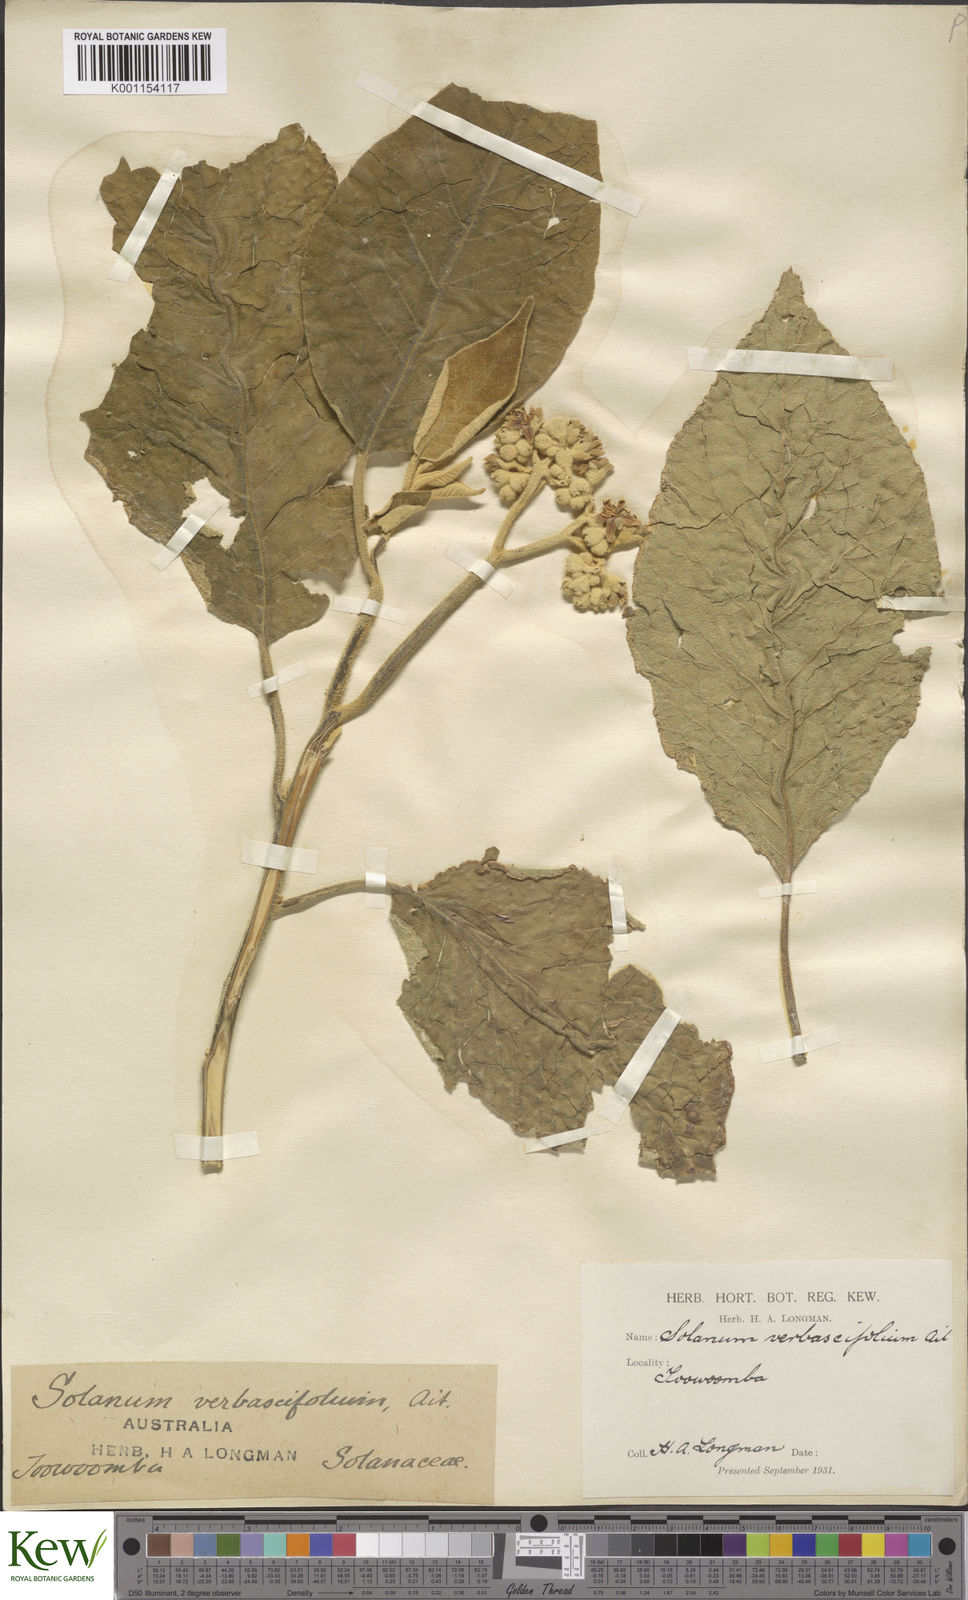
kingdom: Plantae
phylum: Tracheophyta
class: Magnoliopsida
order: Solanales
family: Solanaceae
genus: Solanum
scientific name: Solanum erianthum
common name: Tobacco-tree
